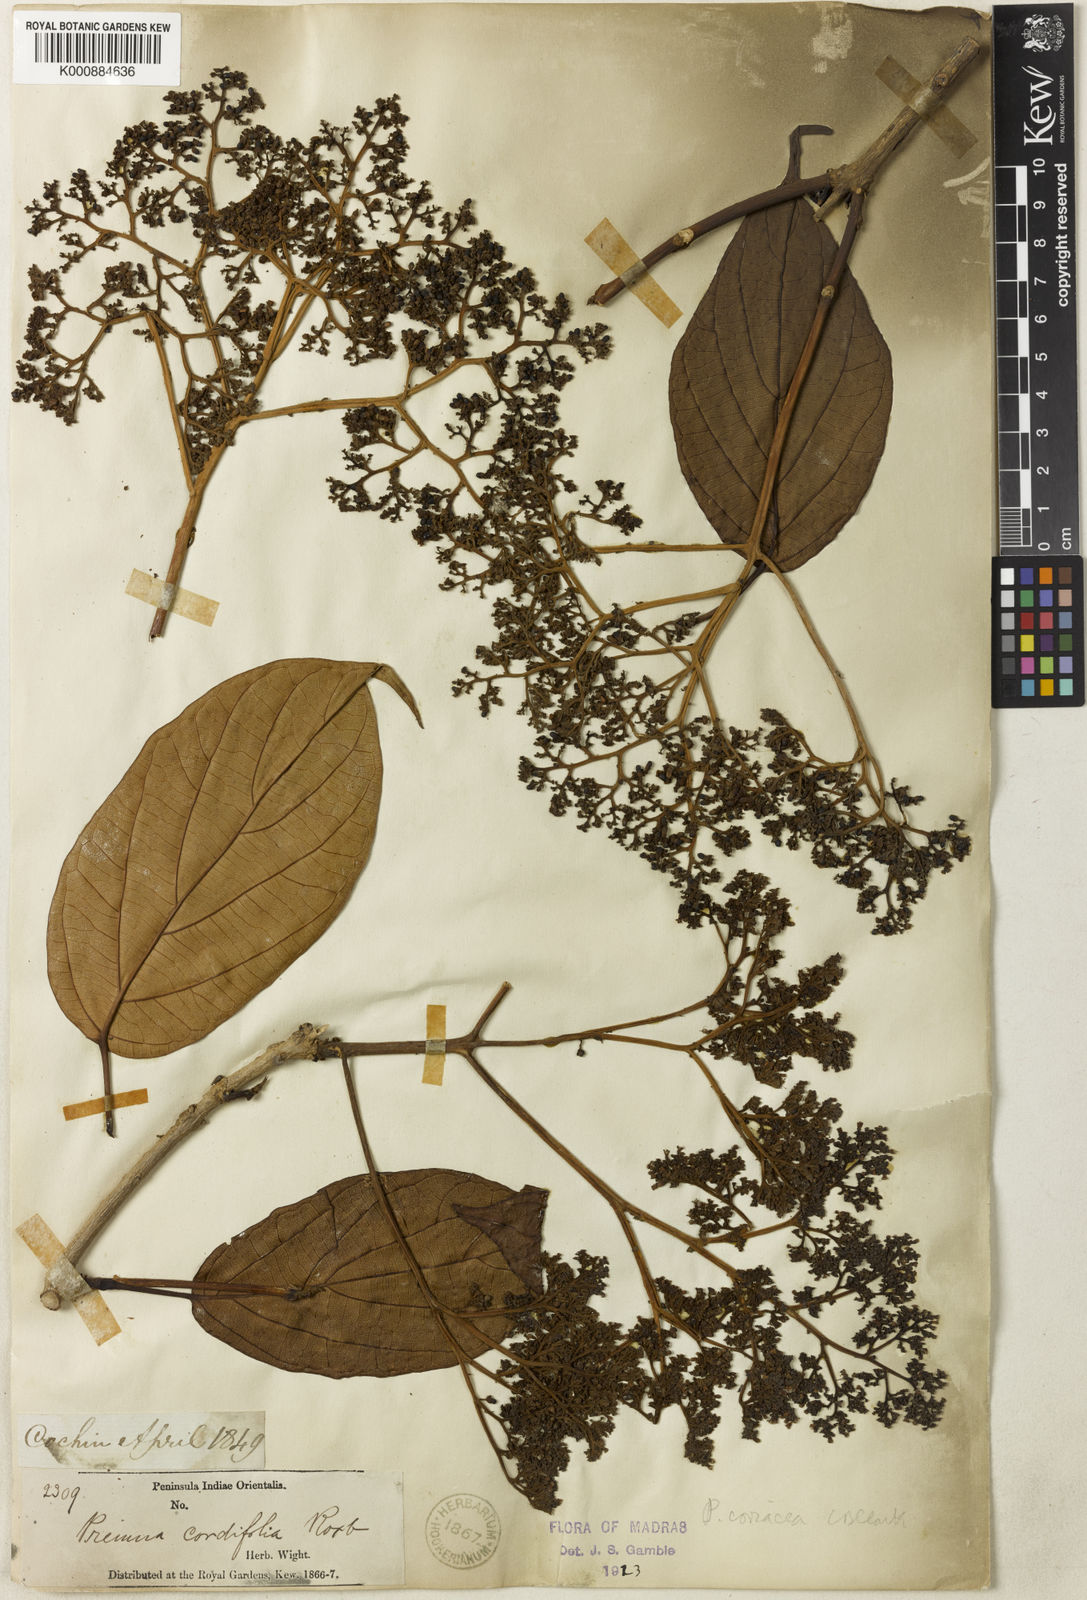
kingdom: Plantae
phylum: Tracheophyta
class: Magnoliopsida
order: Lamiales
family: Lamiaceae
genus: Premna
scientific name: Premna coriacea
